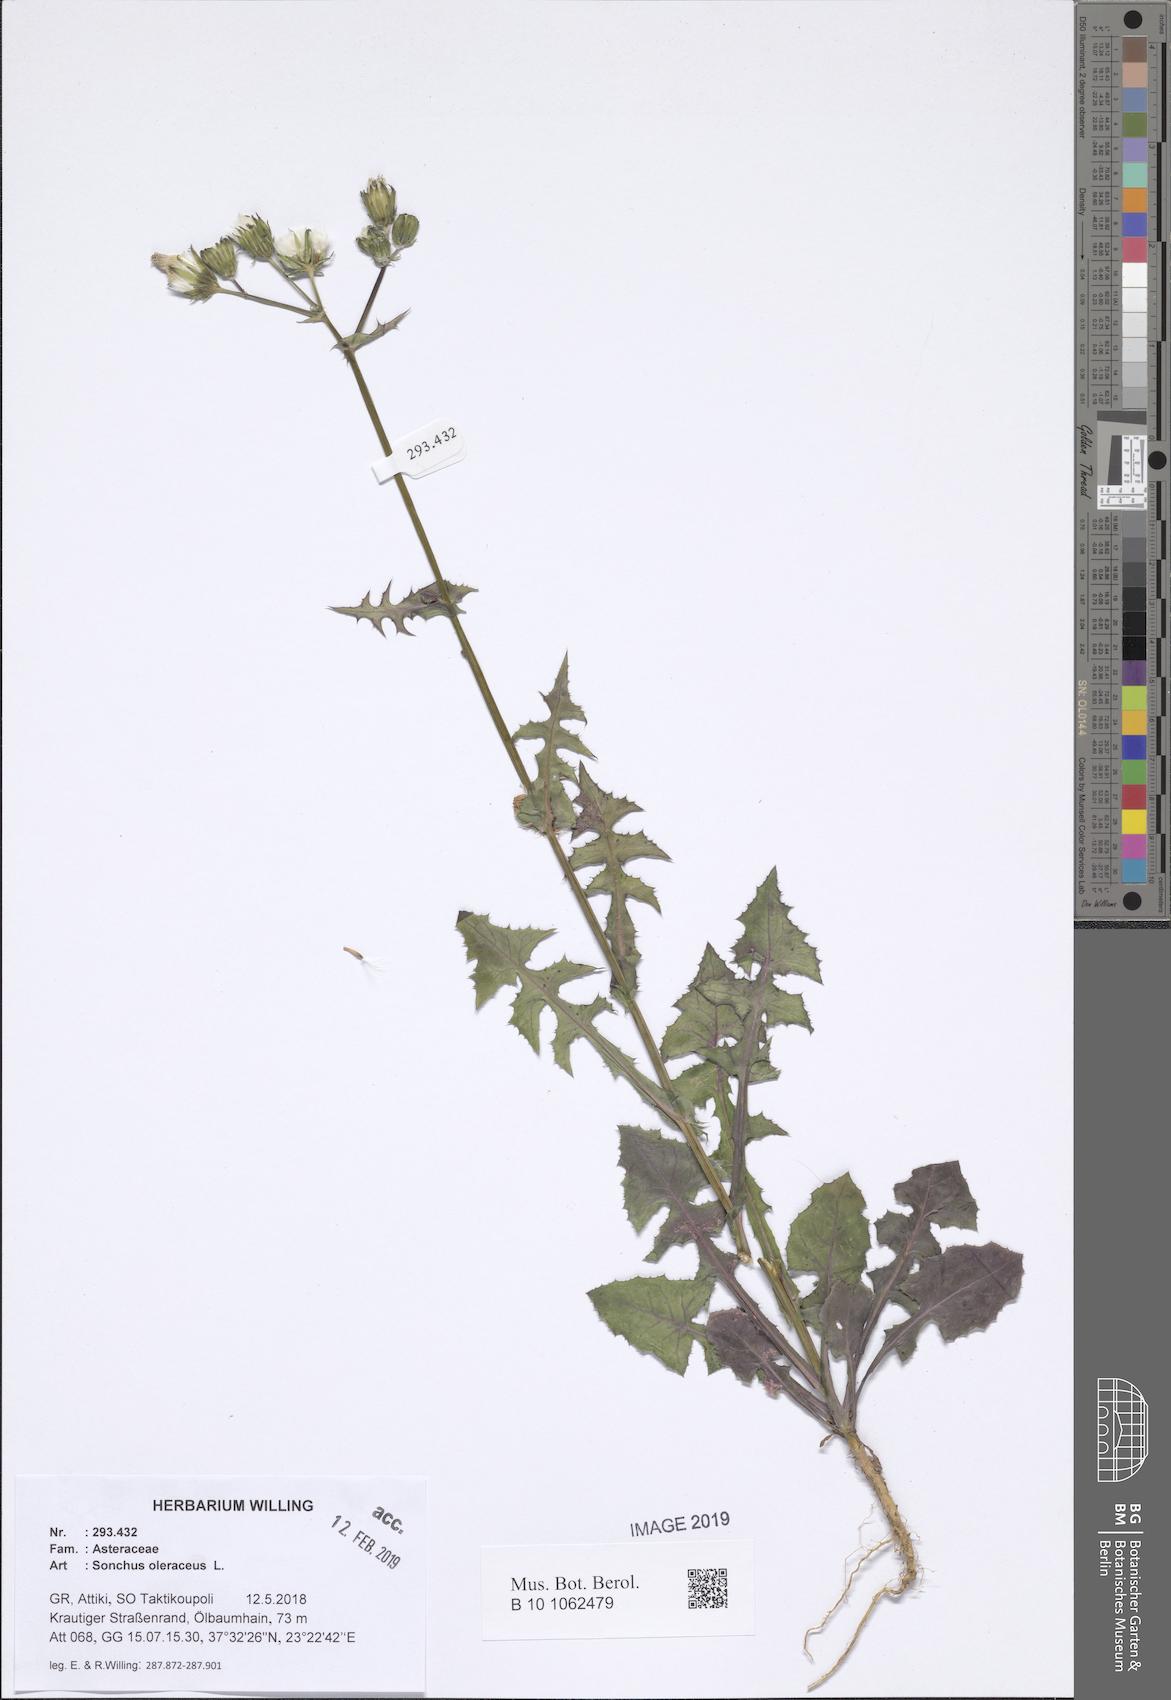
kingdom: Plantae
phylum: Tracheophyta
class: Magnoliopsida
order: Asterales
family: Asteraceae
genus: Sonchus
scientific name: Sonchus oleraceus
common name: Common sowthistle
